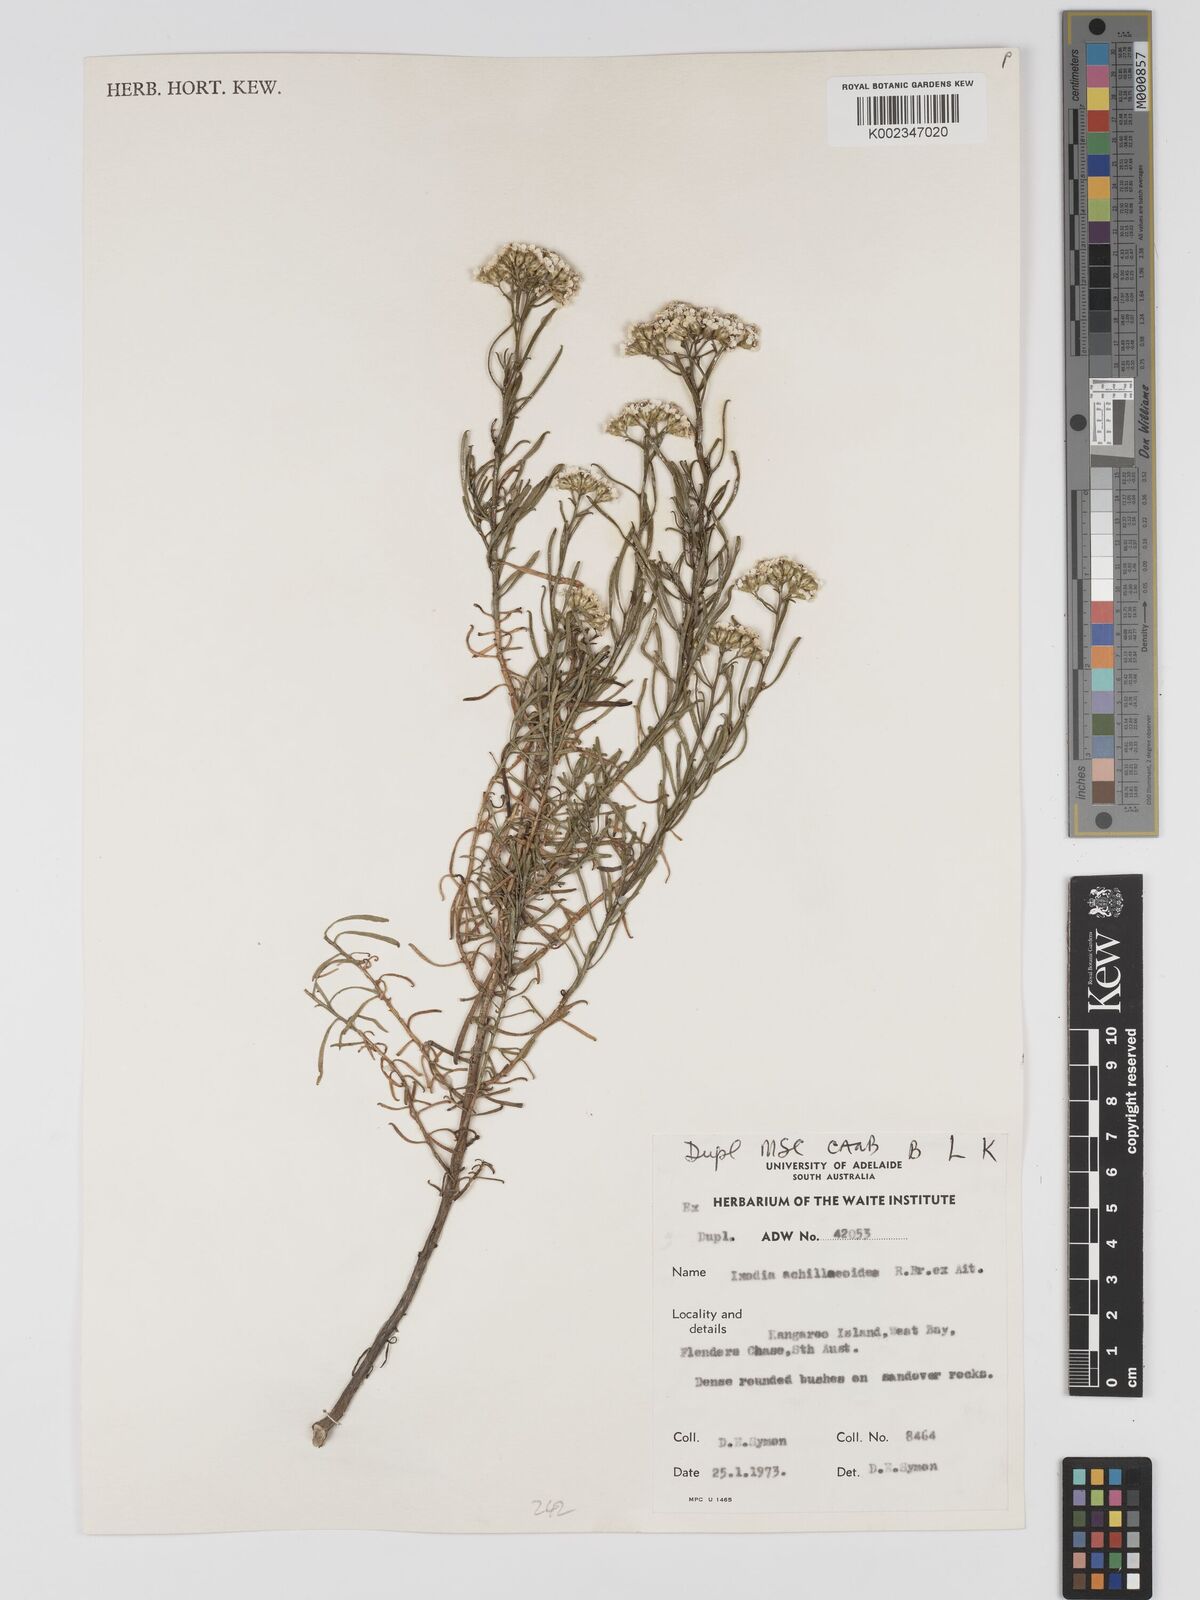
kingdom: Plantae
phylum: Tracheophyta
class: Magnoliopsida
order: Asterales
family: Asteraceae
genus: Ixodia
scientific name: Ixodia achilleoides
